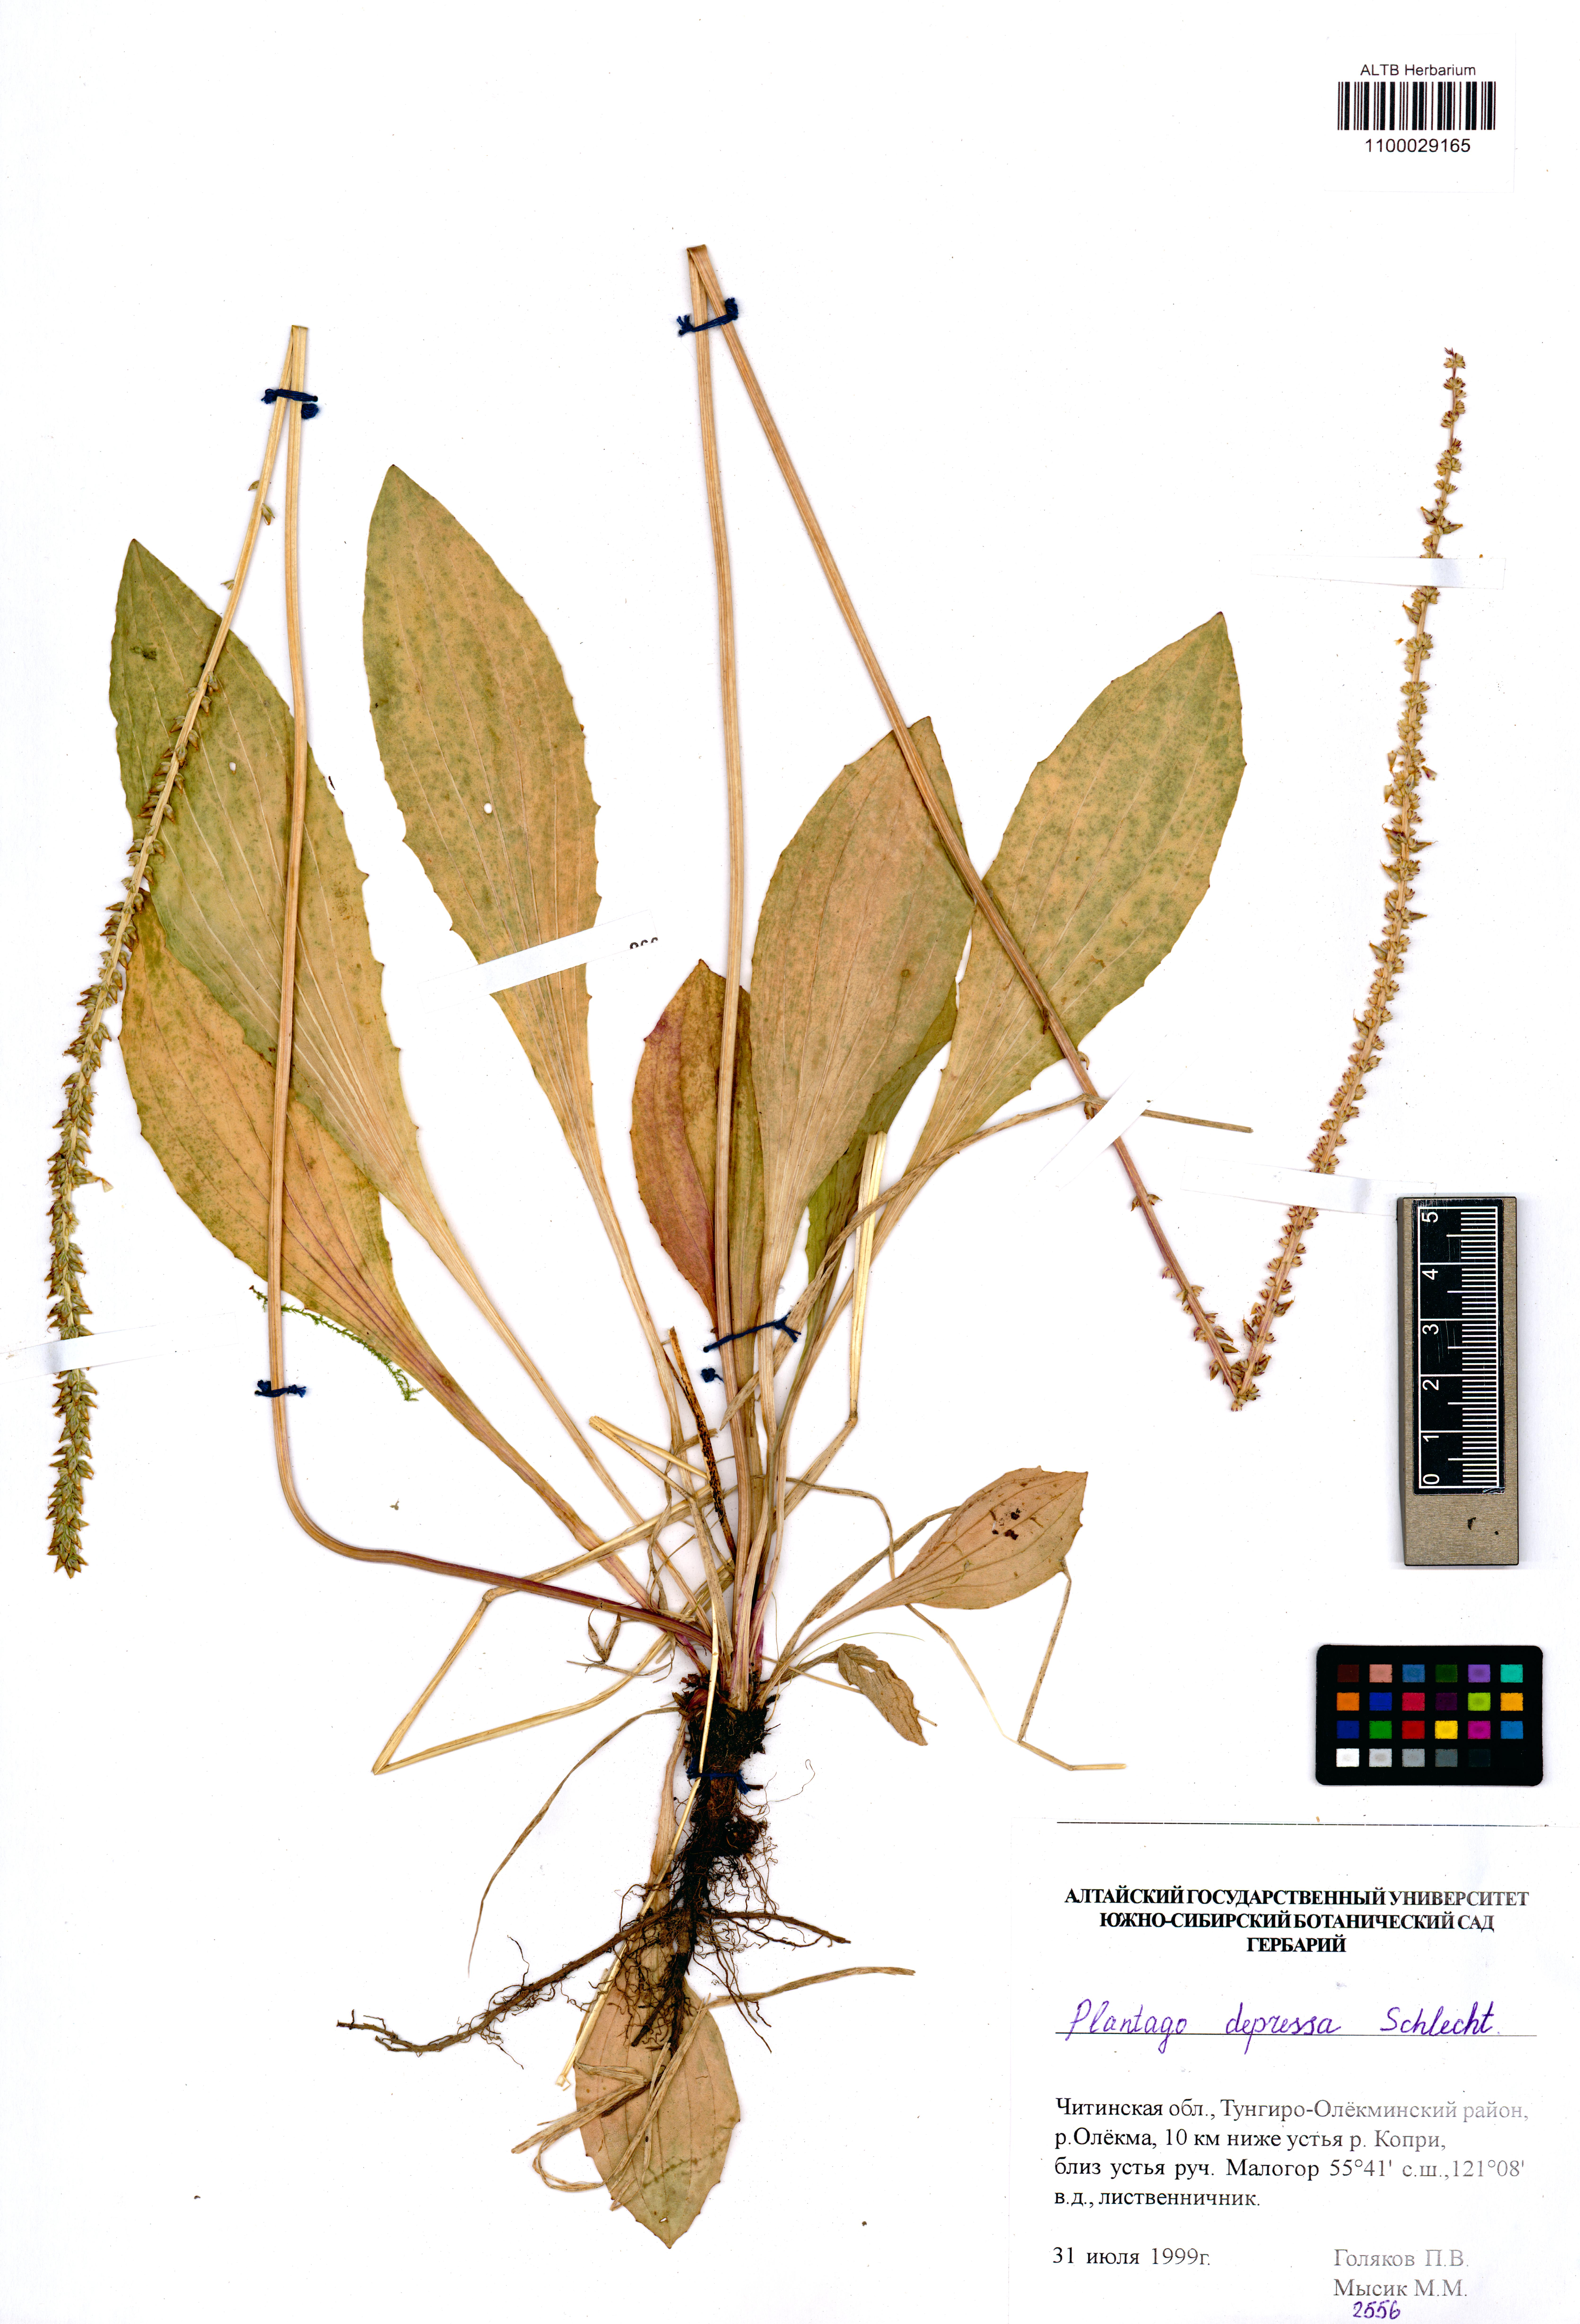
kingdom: Plantae
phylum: Tracheophyta
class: Magnoliopsida
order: Lamiales
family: Plantaginaceae
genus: Plantago
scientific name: Plantago depressa
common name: Depressed plantain
